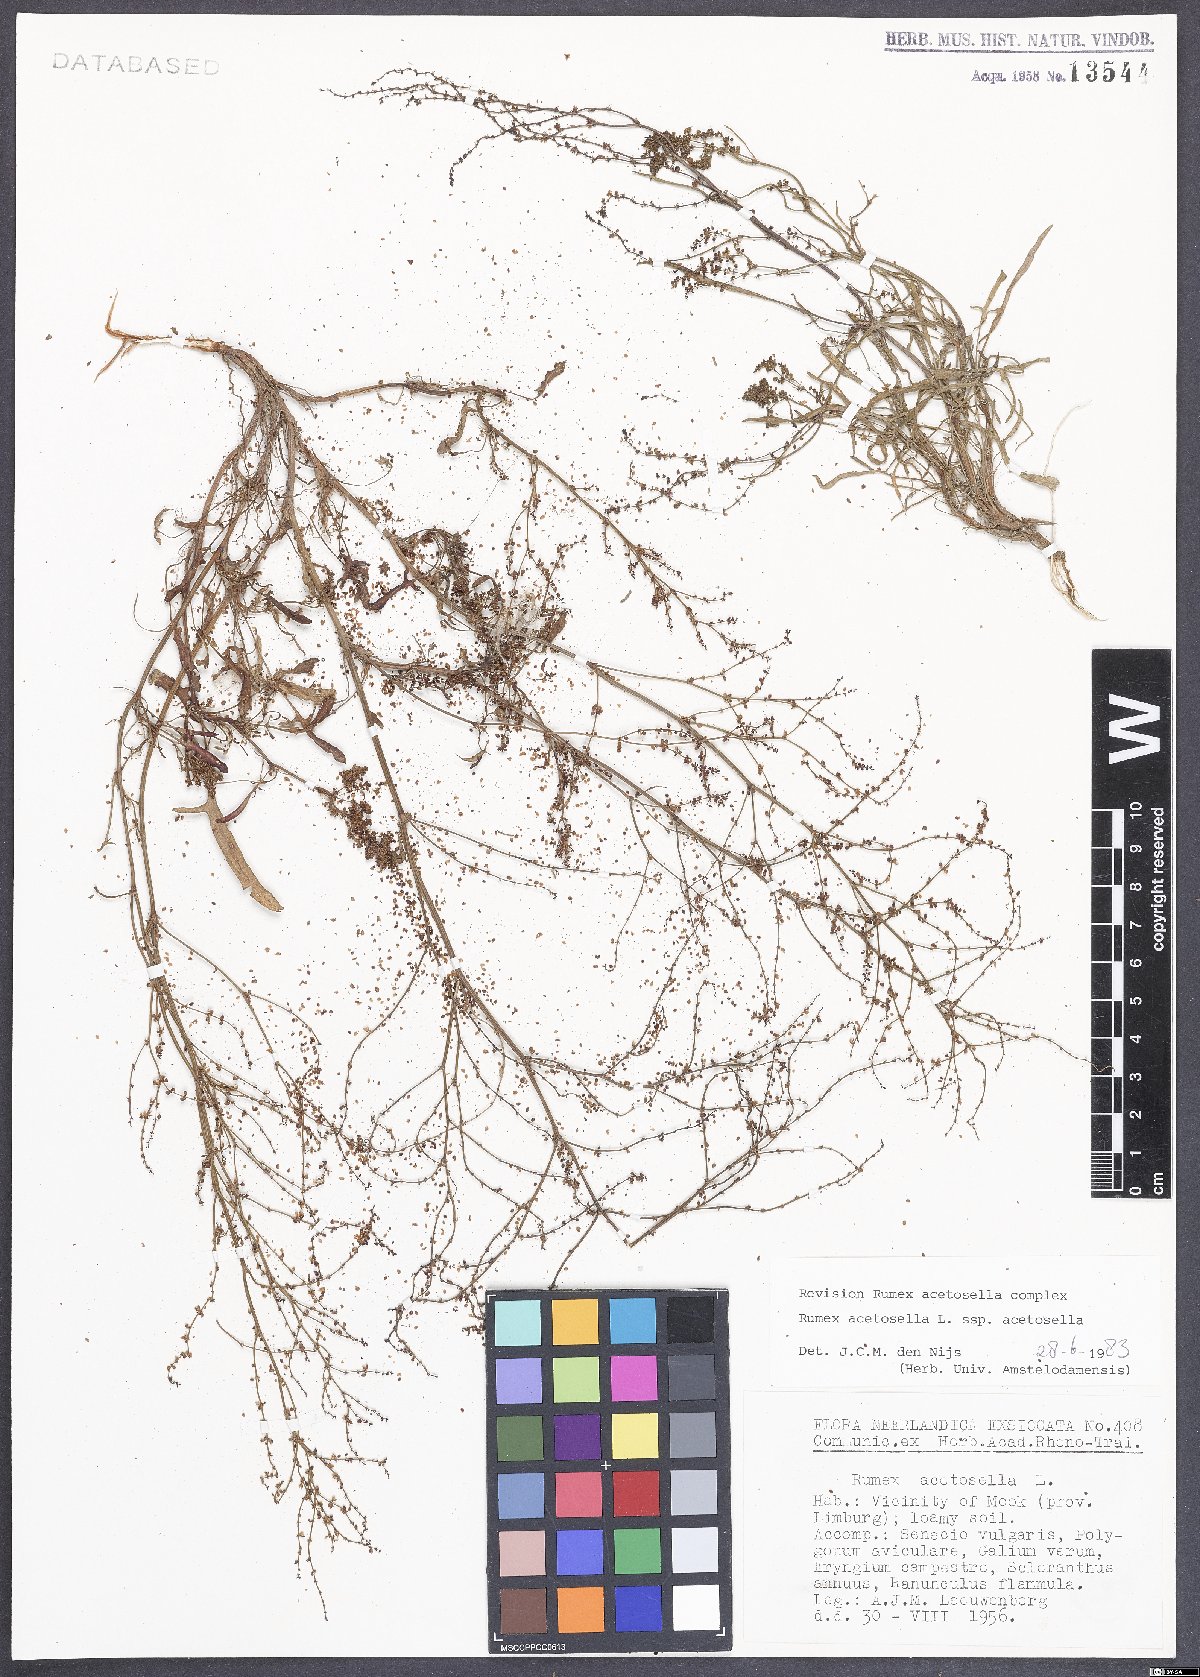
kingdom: Plantae
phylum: Tracheophyta
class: Magnoliopsida
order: Caryophyllales
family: Polygonaceae
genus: Rumex
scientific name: Rumex acetosella
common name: Common sheep sorrel
